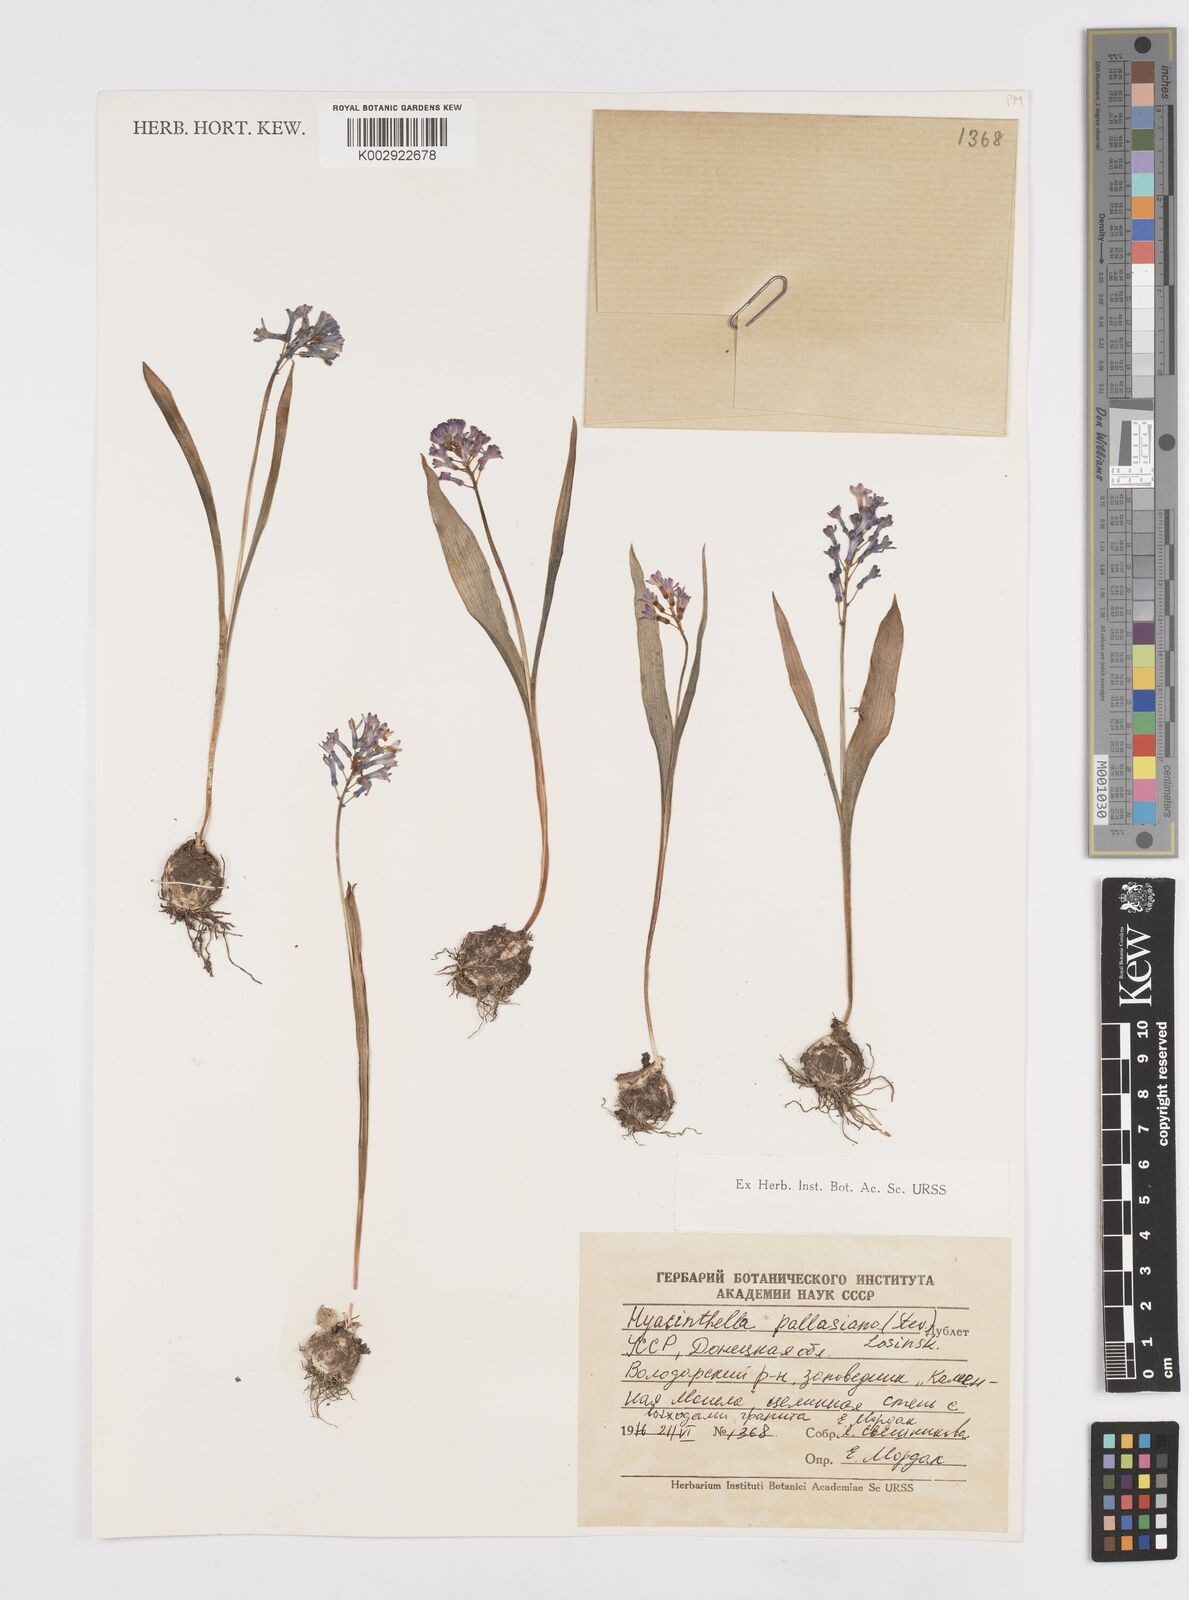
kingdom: Plantae
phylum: Tracheophyta
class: Liliopsida
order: Asparagales
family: Asparagaceae
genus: Hyacinthella
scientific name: Hyacinthella pallasiana
